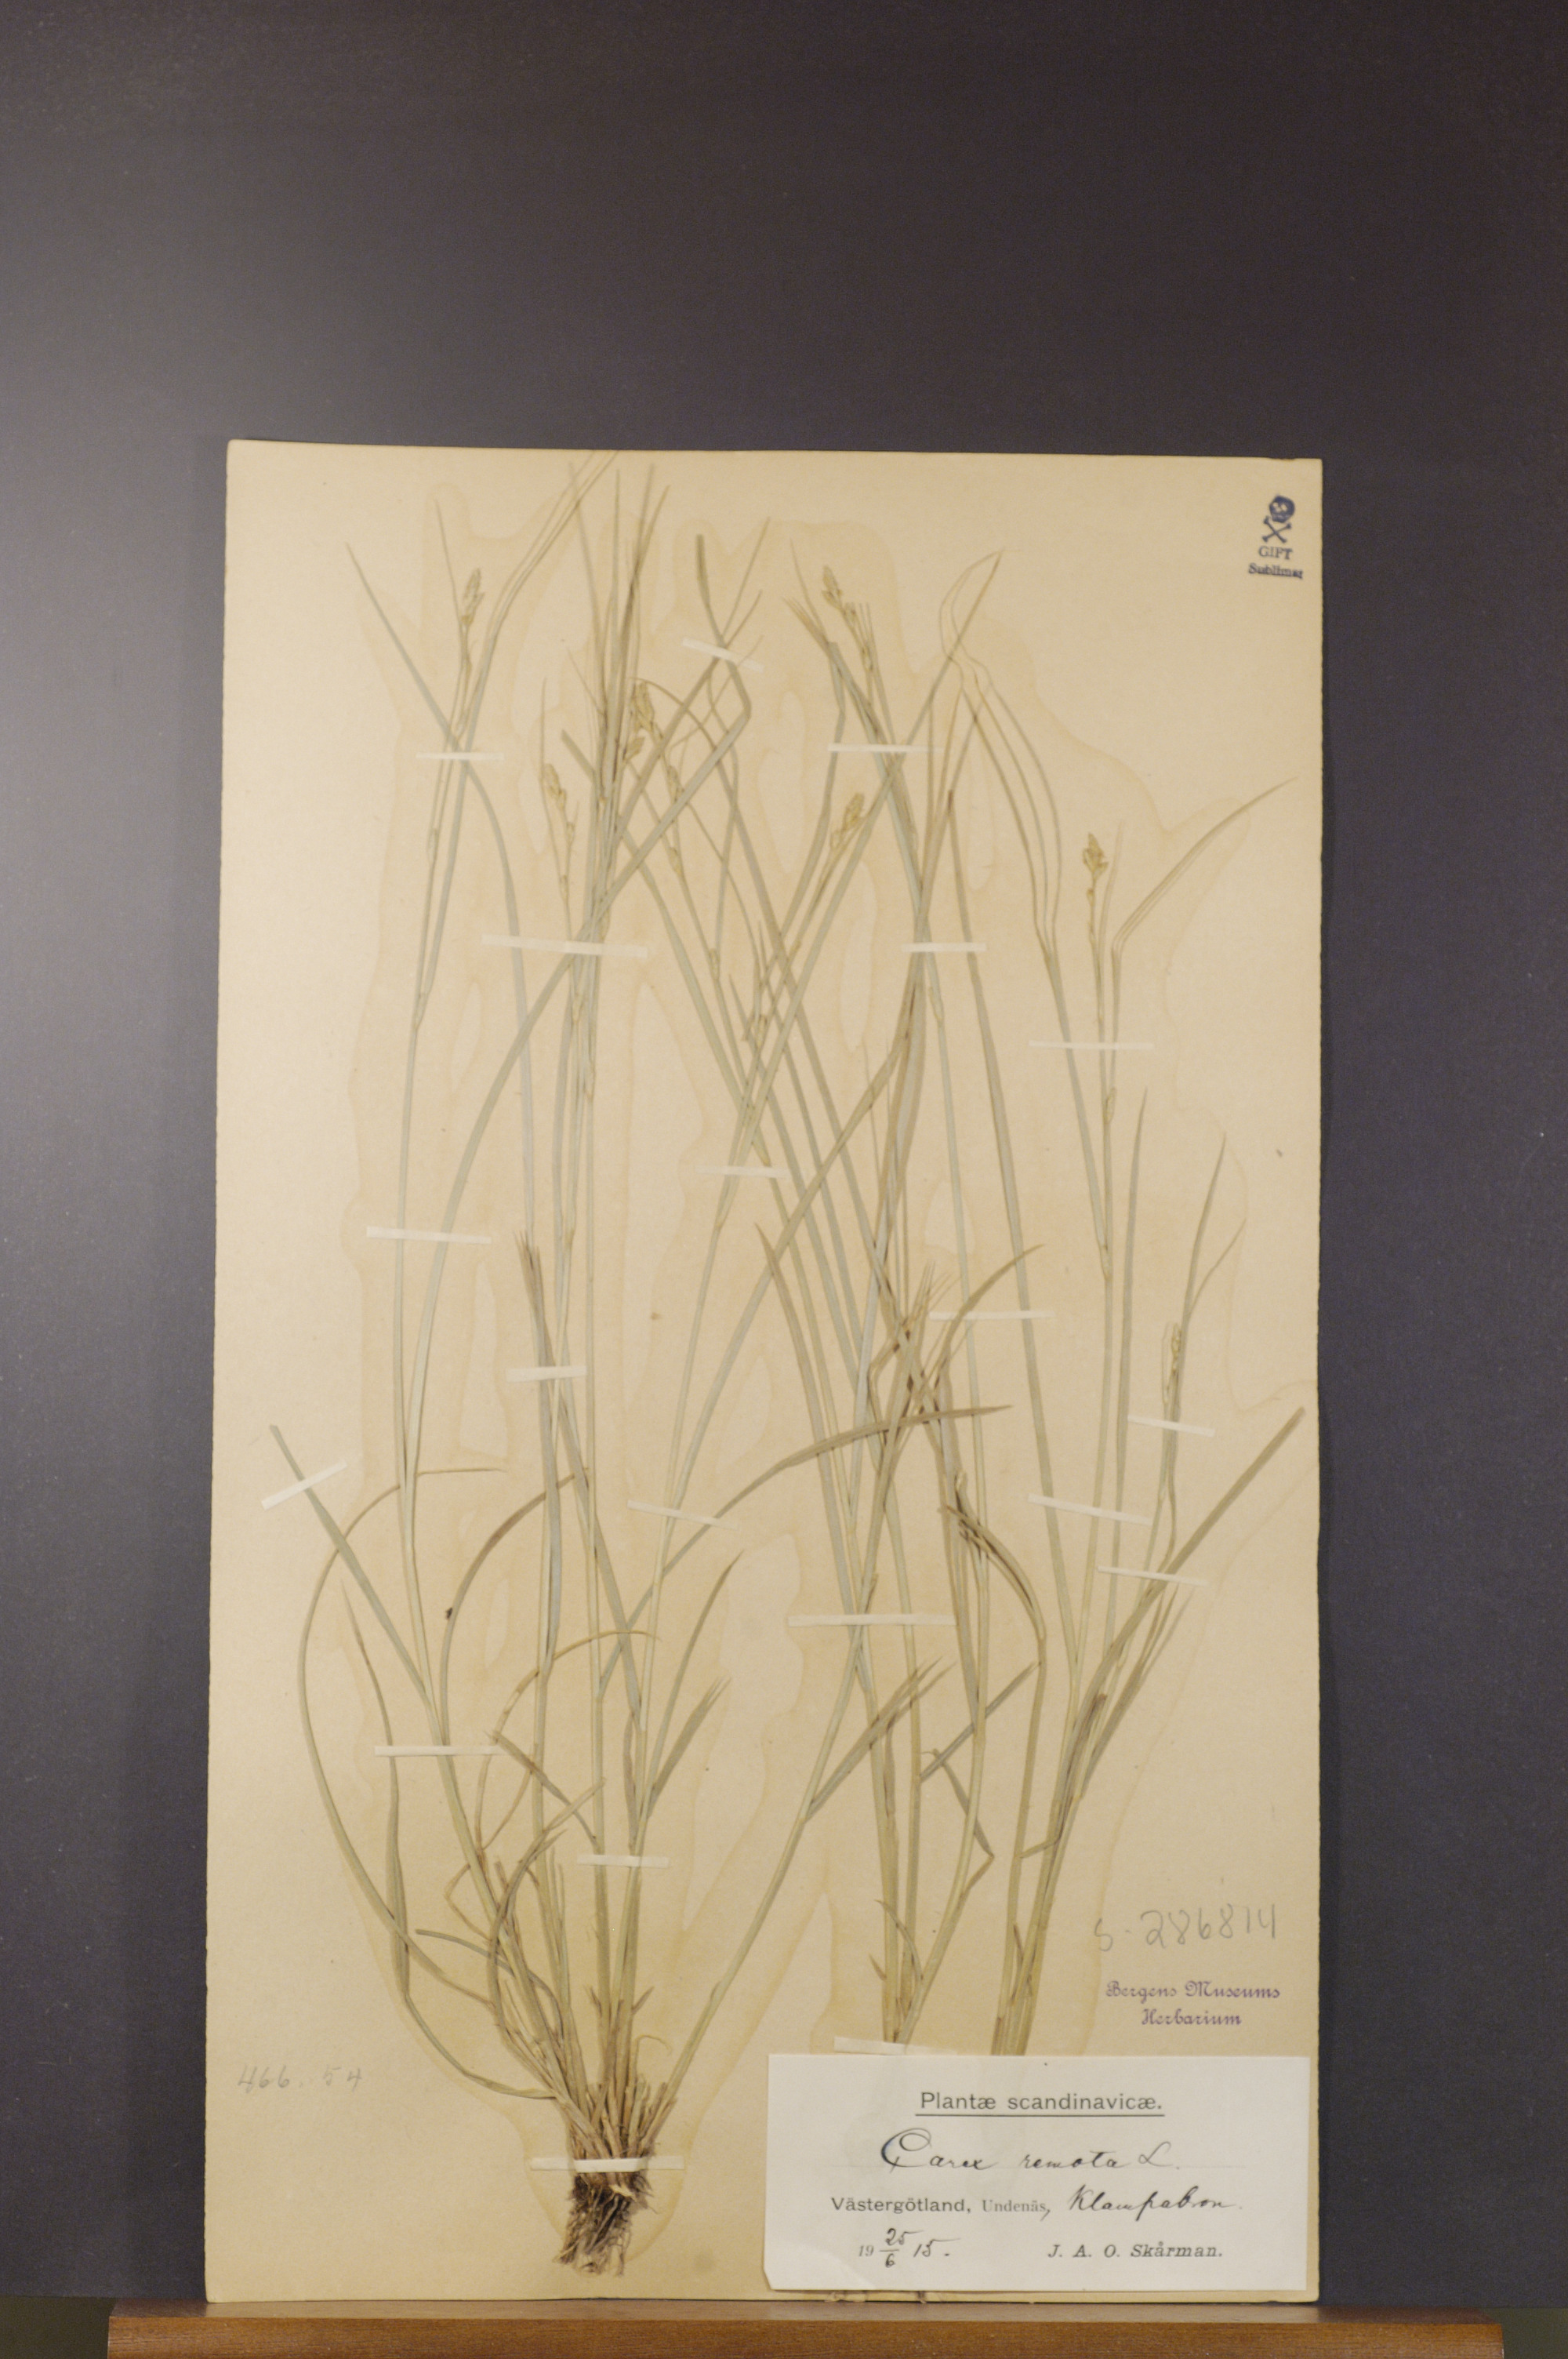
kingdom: Plantae
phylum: Tracheophyta
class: Liliopsida
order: Poales
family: Cyperaceae
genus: Carex
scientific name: Carex remota
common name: Remote sedge
